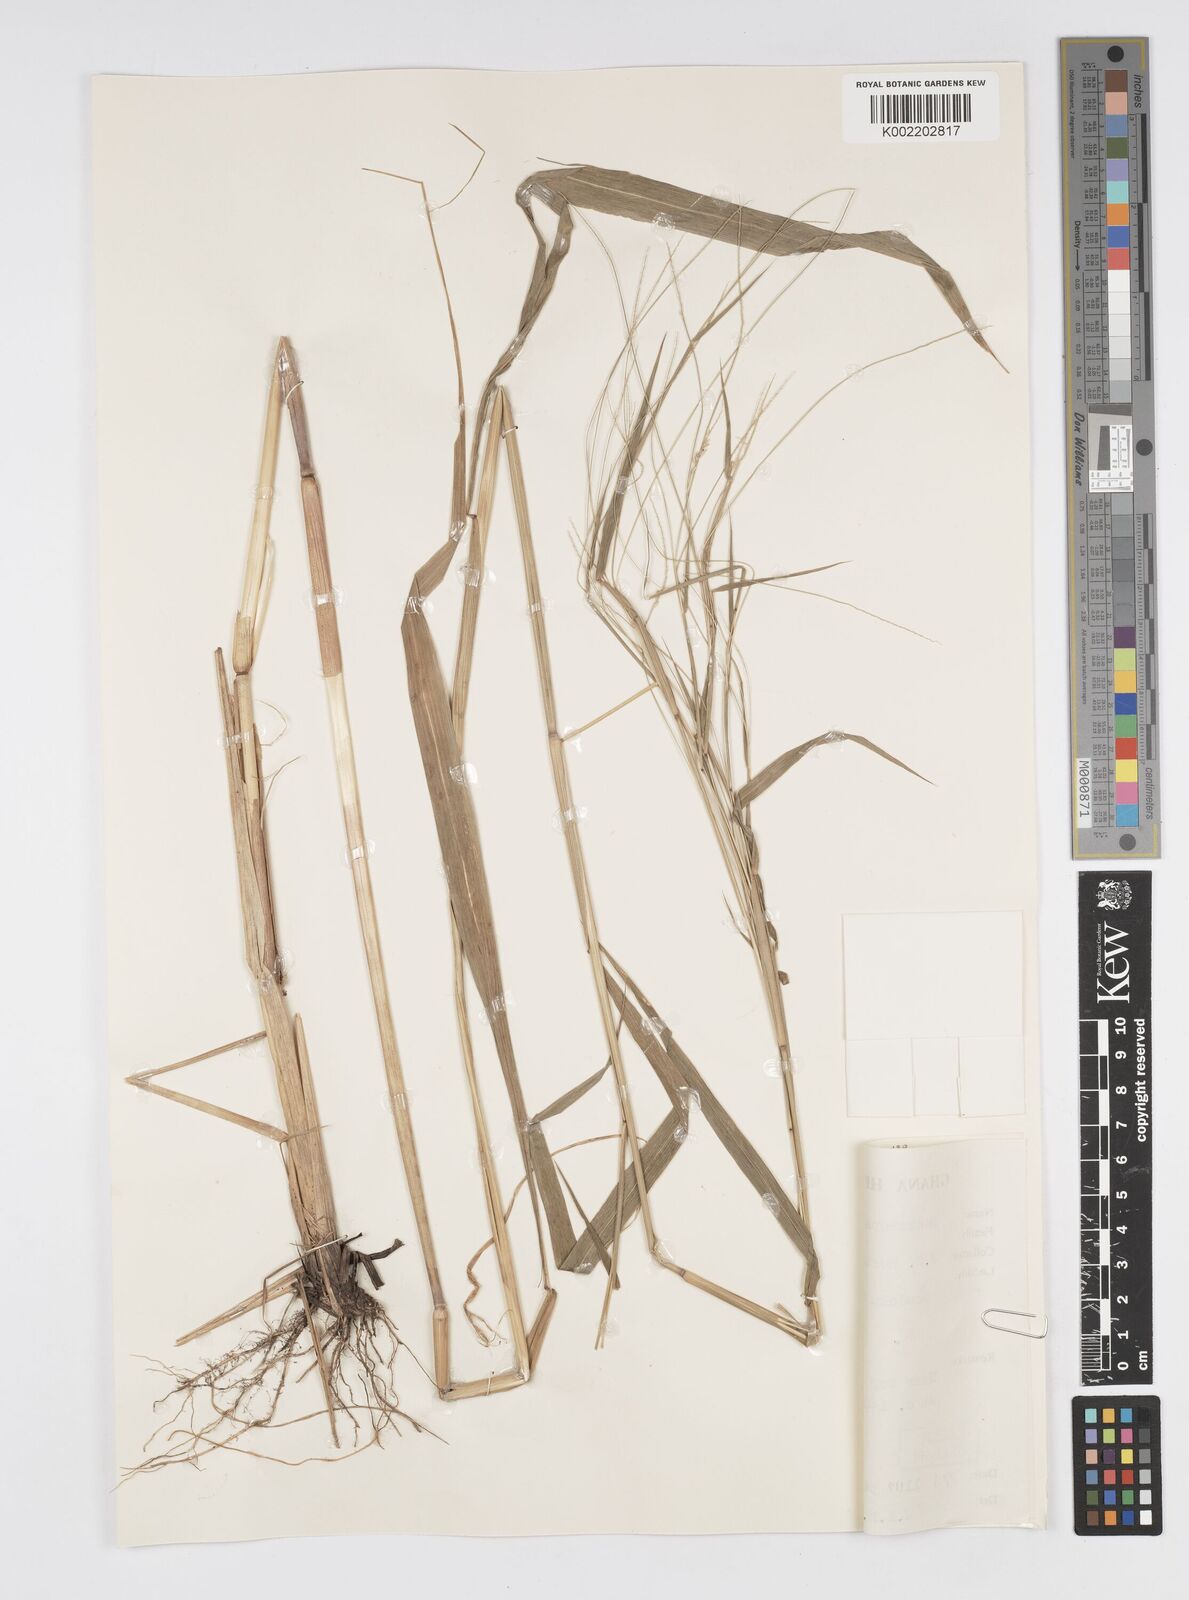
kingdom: Plantae
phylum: Tracheophyta
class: Liliopsida
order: Poales
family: Poaceae
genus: Cenchrus
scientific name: Cenchrus unisetus
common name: Natal grass
